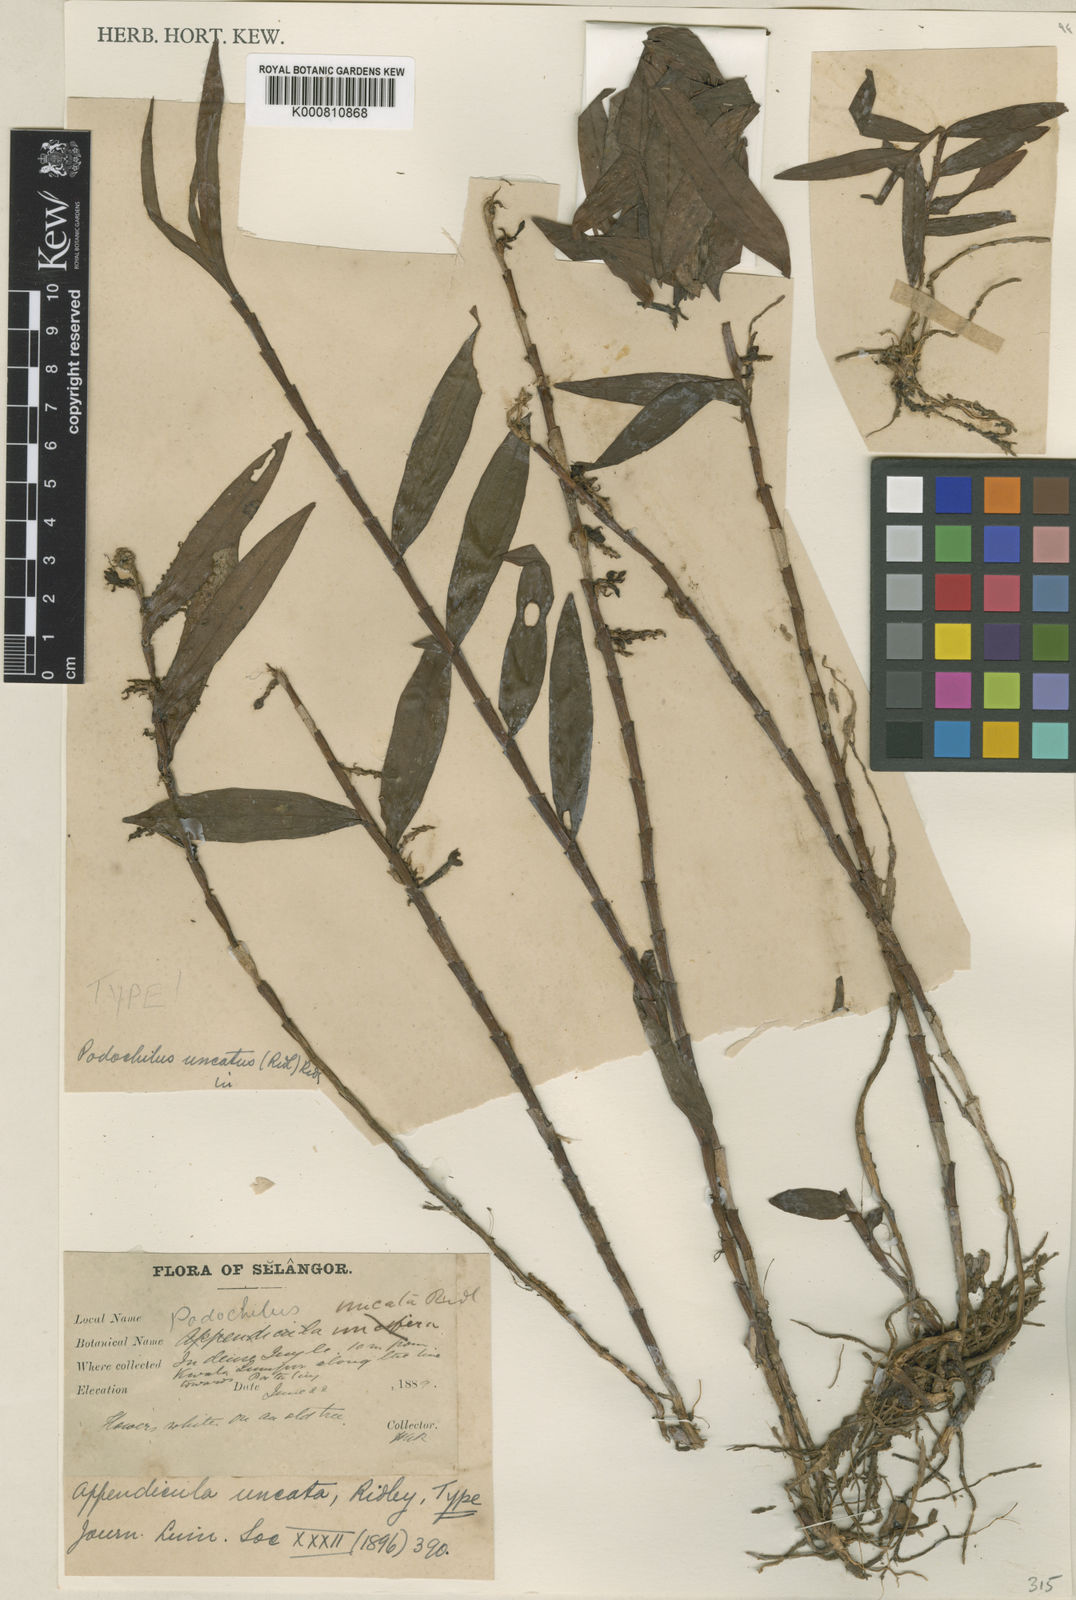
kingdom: Plantae
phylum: Tracheophyta
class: Liliopsida
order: Asparagales
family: Orchidaceae
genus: Appendicula
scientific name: Appendicula uncata
